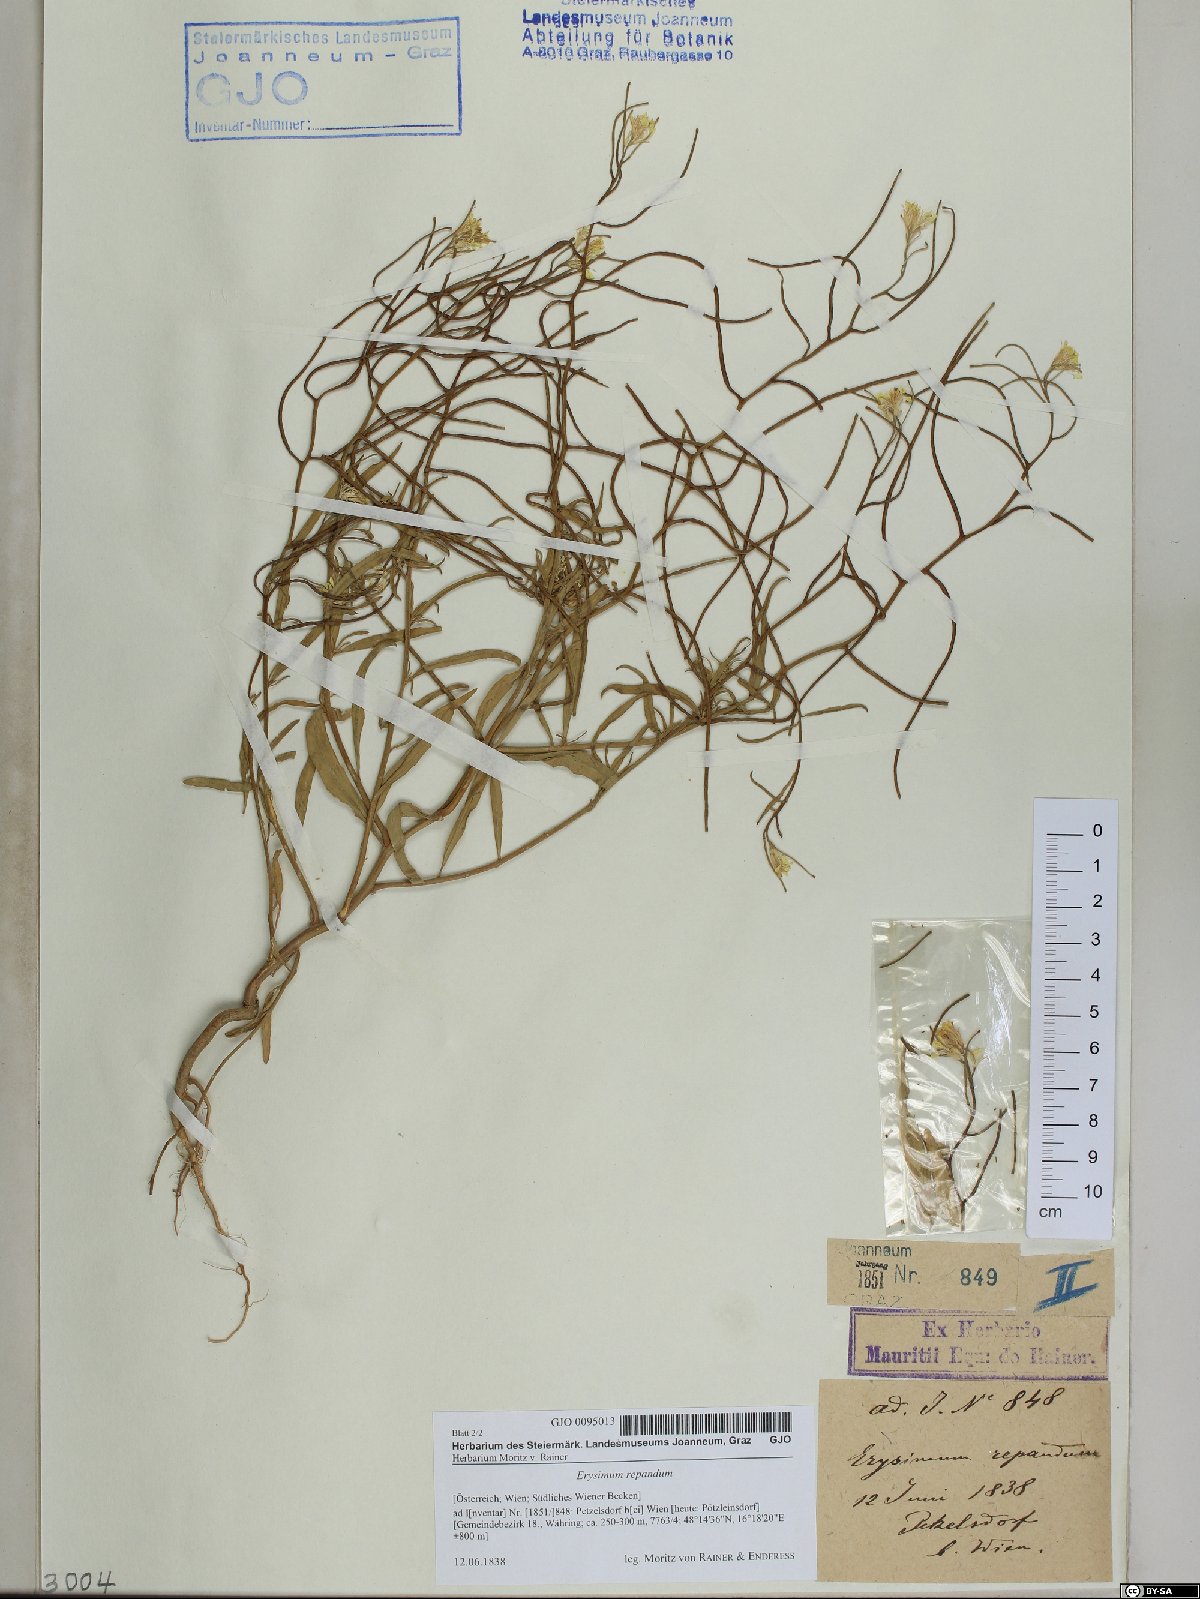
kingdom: Plantae
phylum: Tracheophyta
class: Magnoliopsida
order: Brassicales
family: Brassicaceae
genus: Erysimum
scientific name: Erysimum repandum
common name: Spreading wallflower
